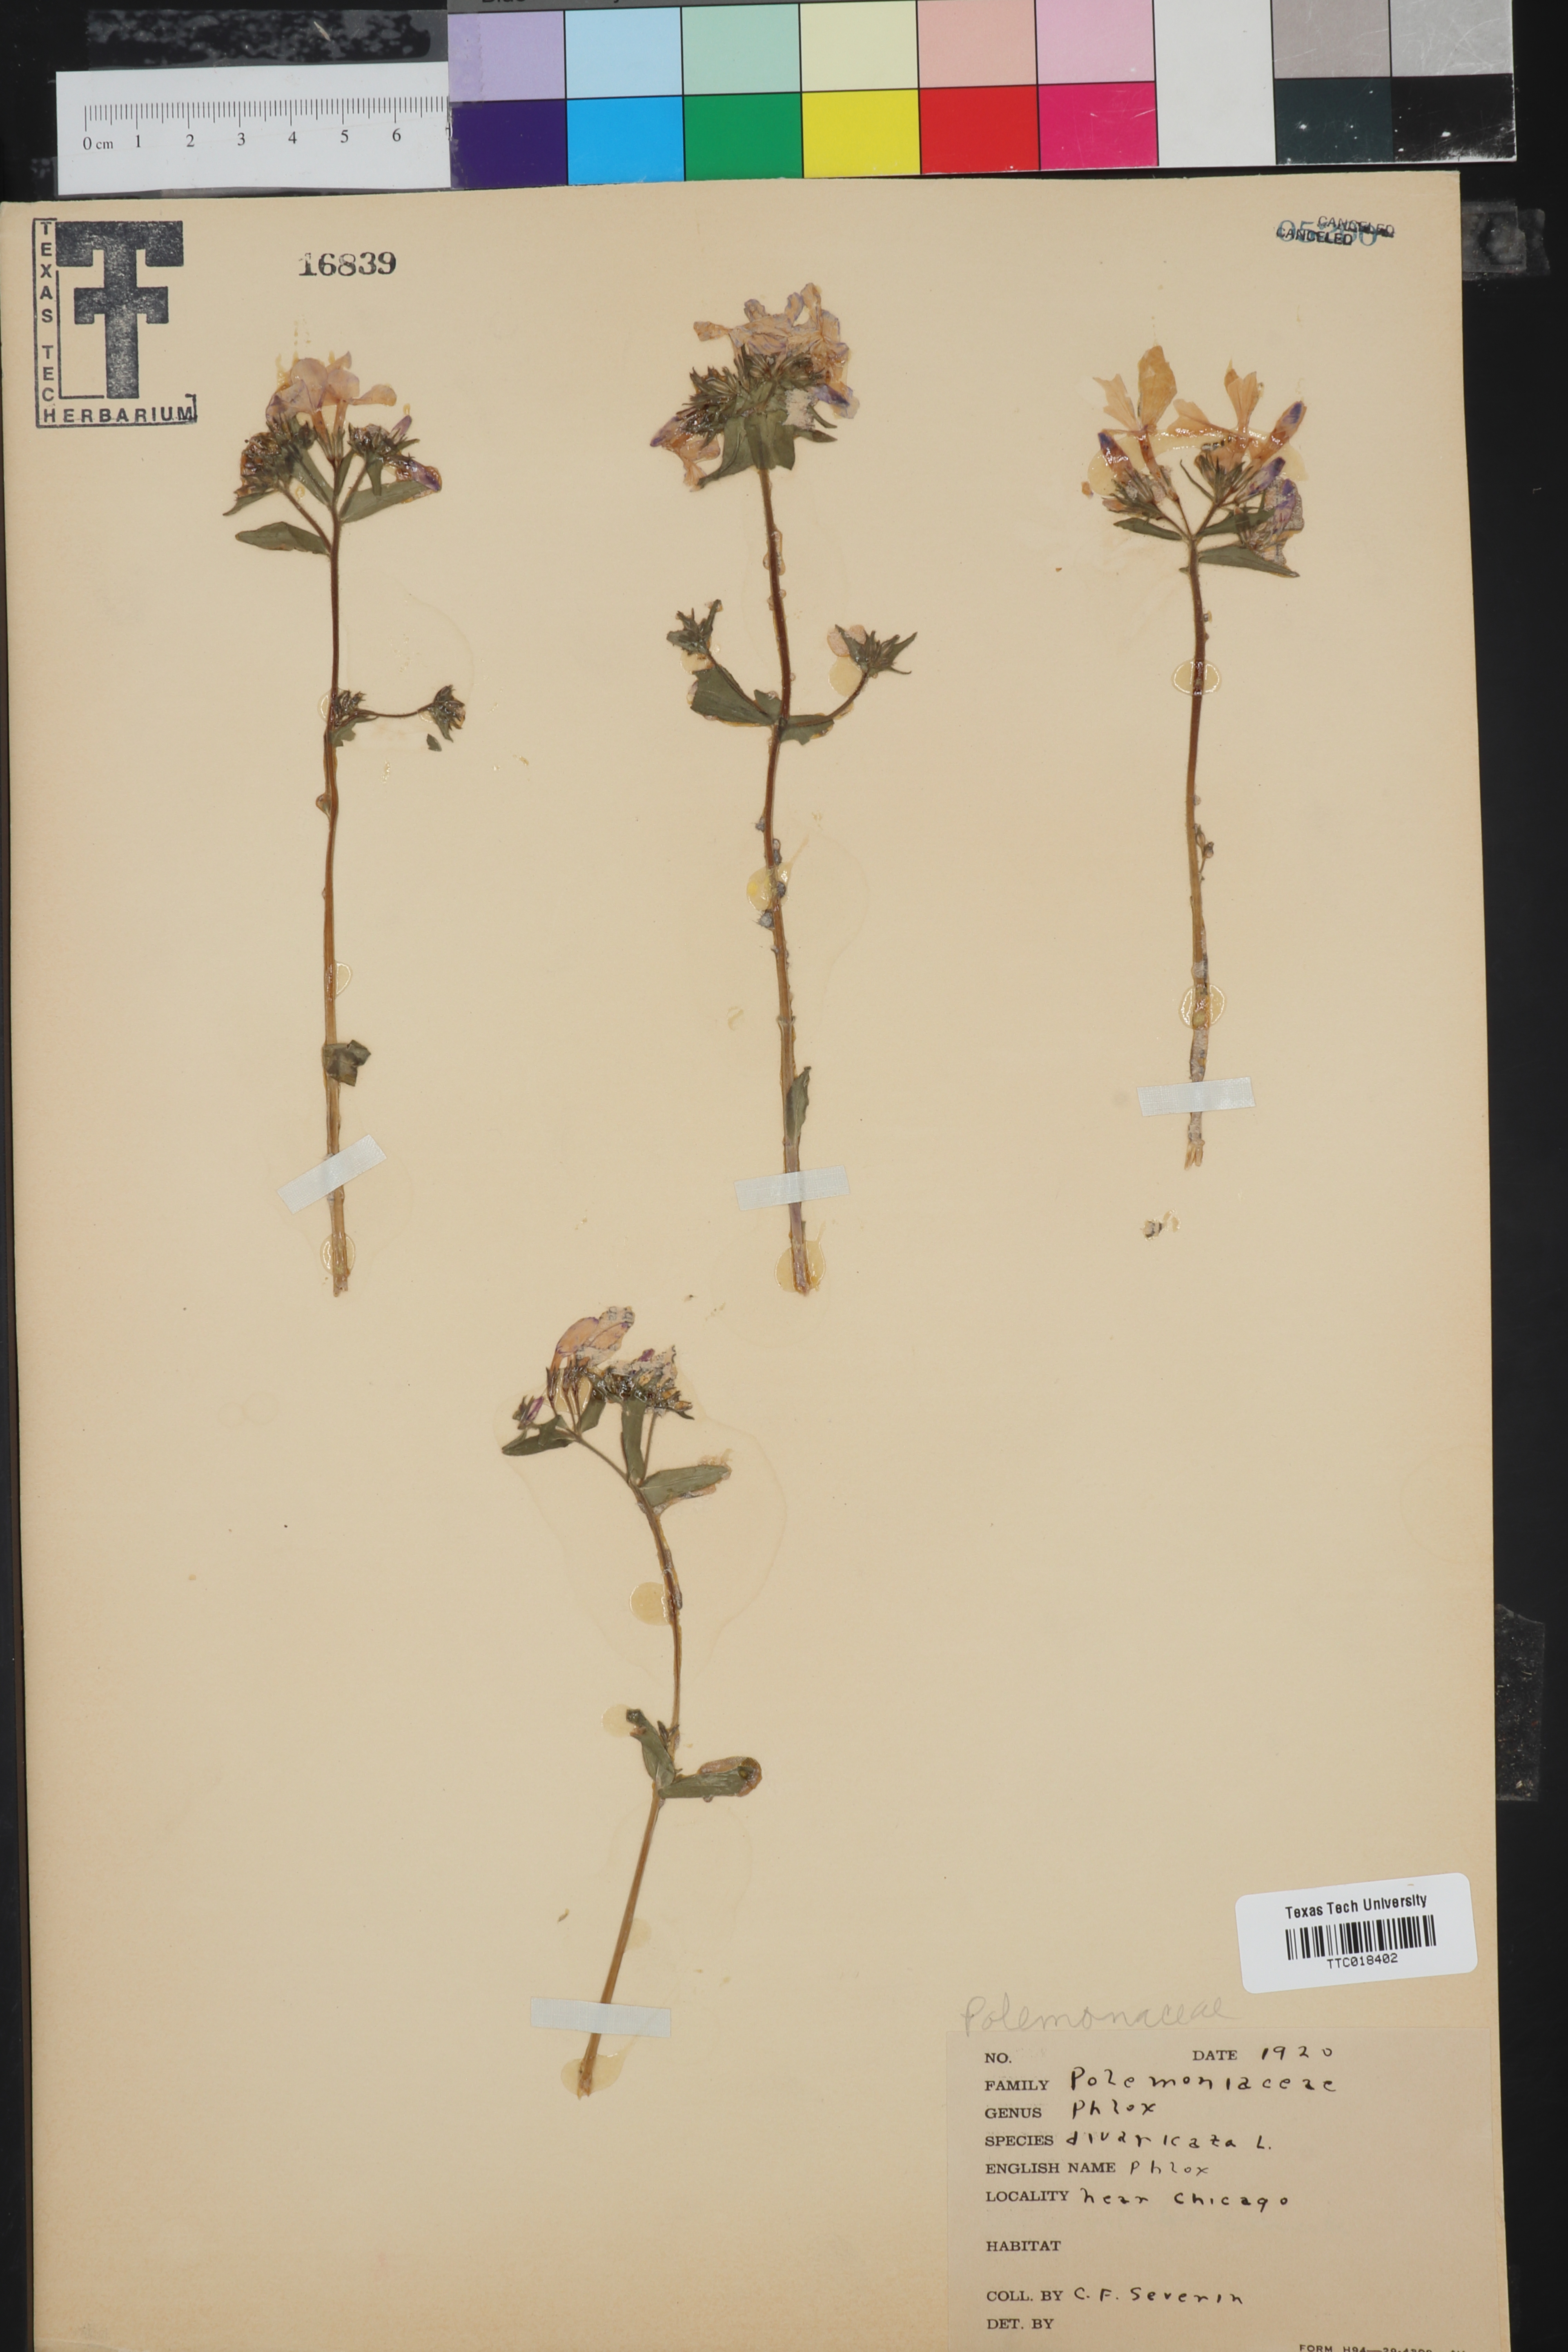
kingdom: Plantae
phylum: Tracheophyta
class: Magnoliopsida
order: Ericales
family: Polemoniaceae
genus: Phlox
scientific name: Phlox divaricata
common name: Blue phlox
